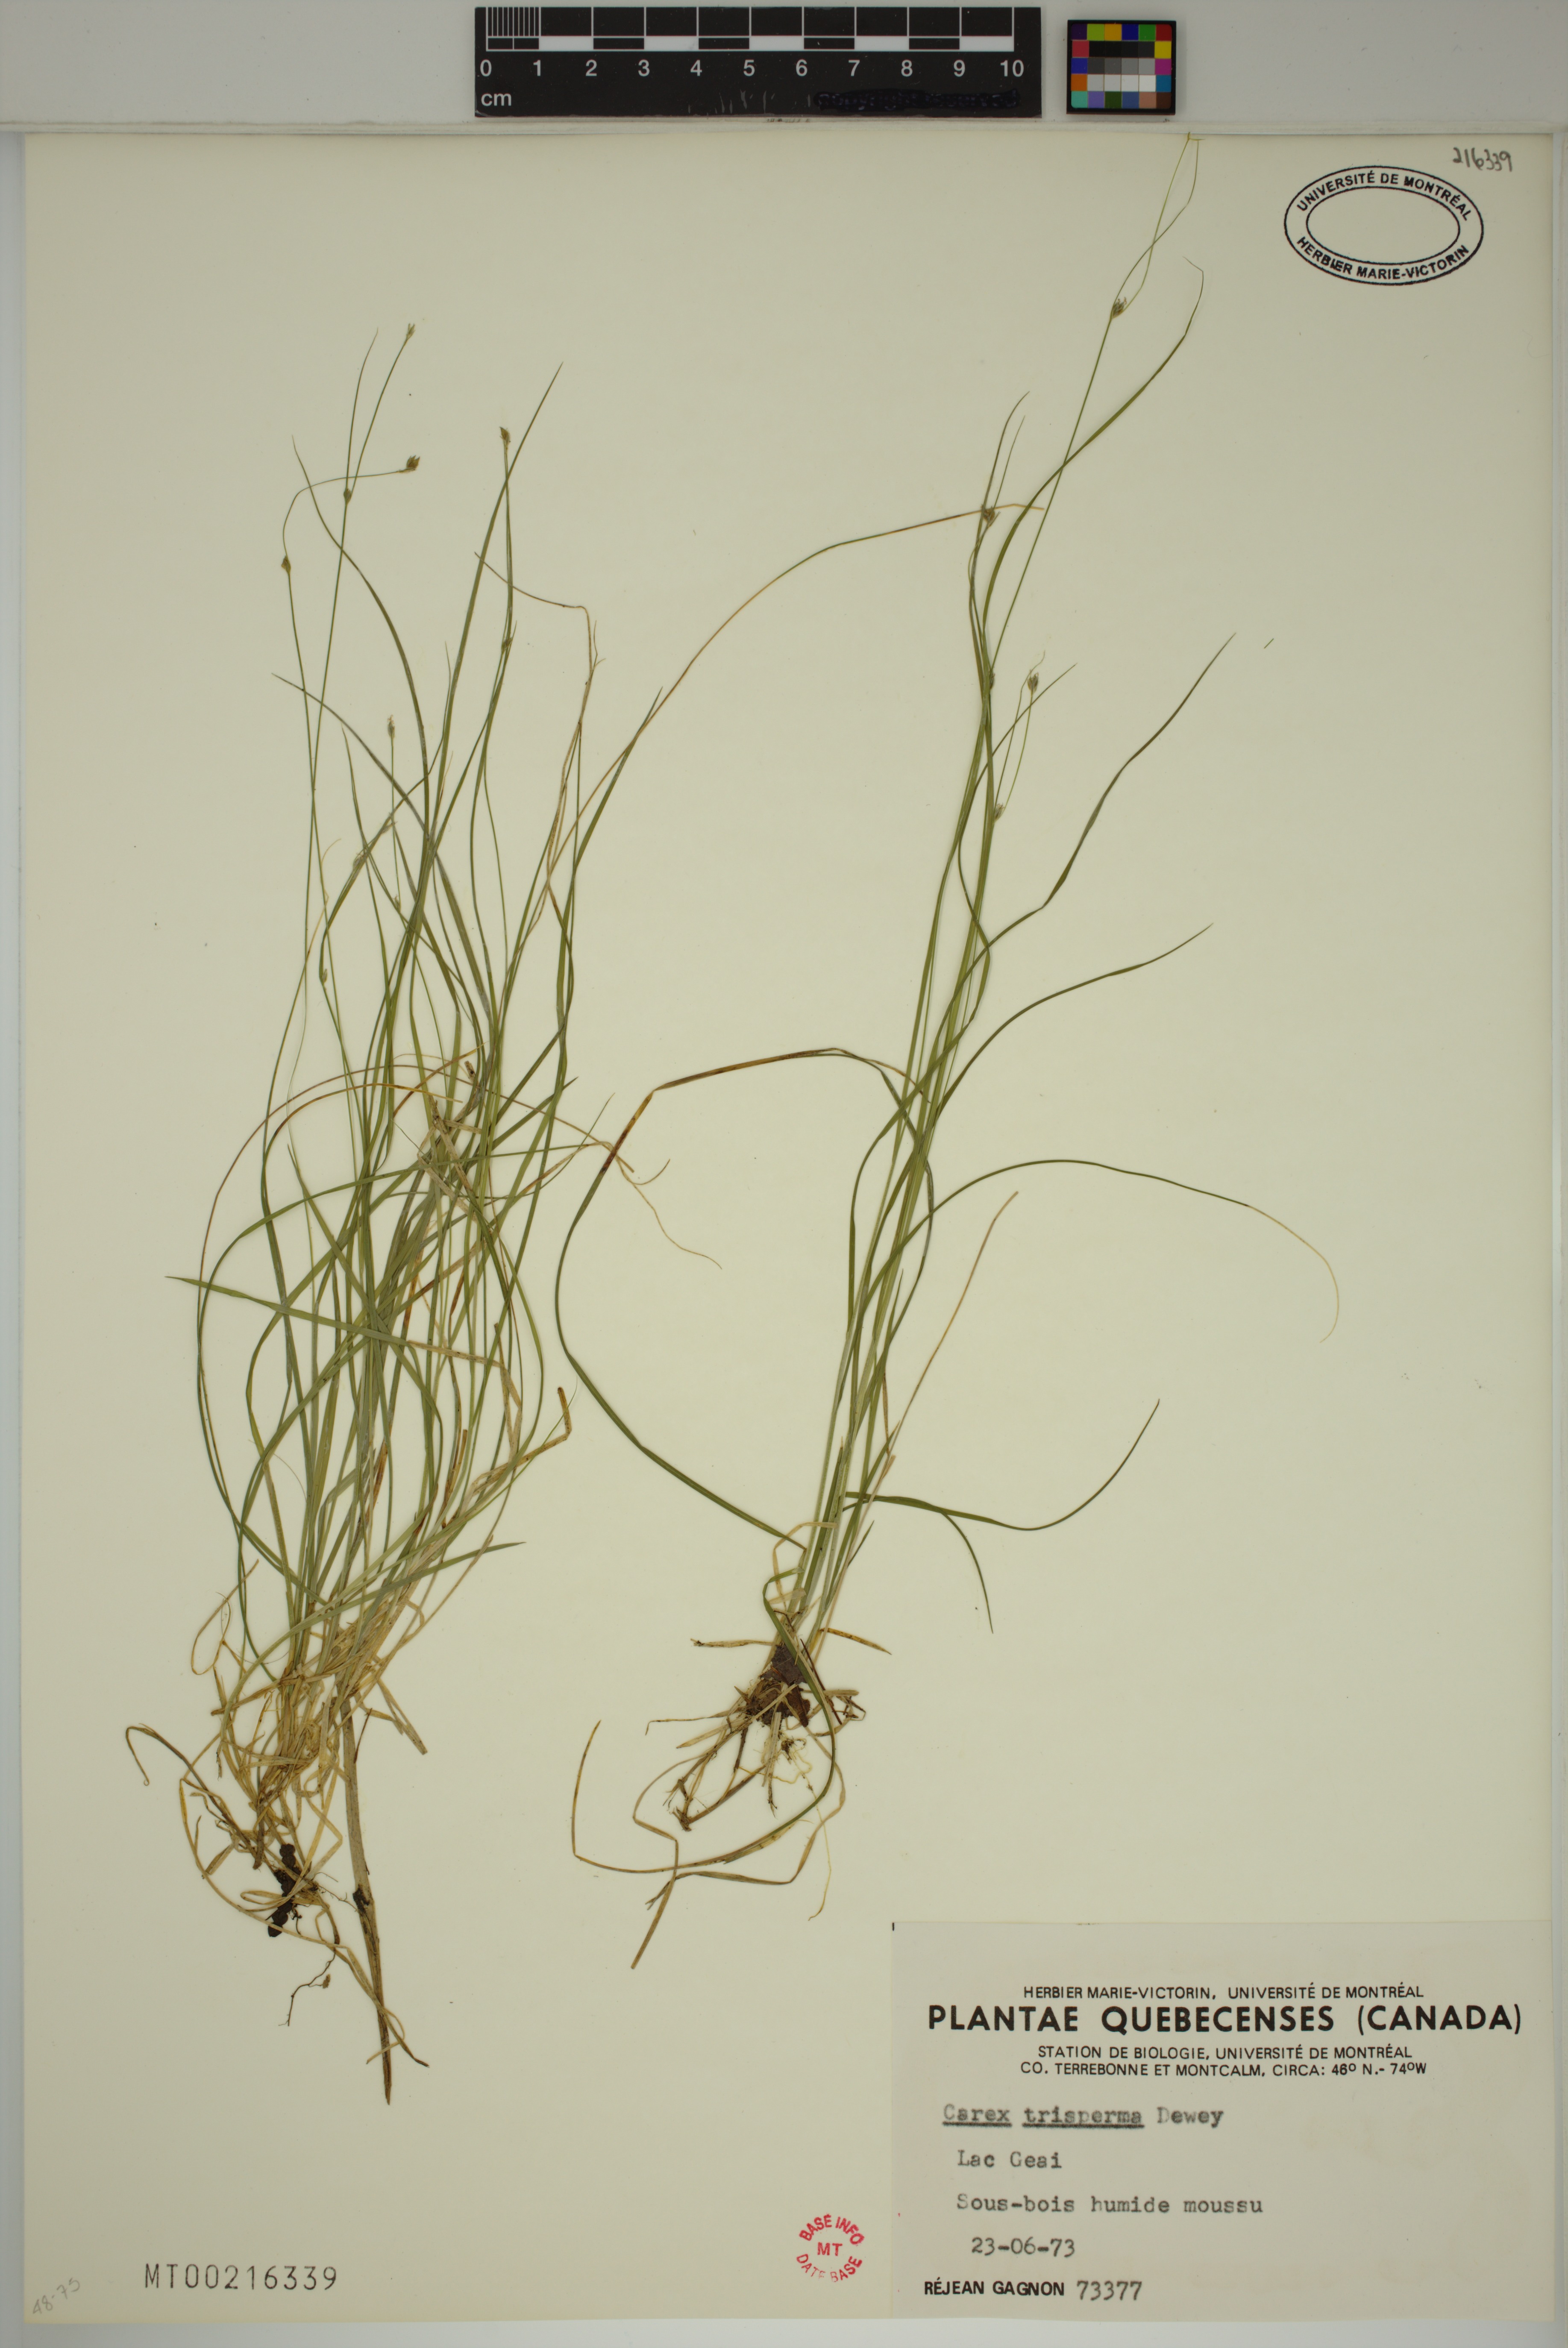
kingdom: Plantae
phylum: Tracheophyta
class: Liliopsida
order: Poales
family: Cyperaceae
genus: Carex
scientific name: Carex trisperma
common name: Three-seeded sedge
